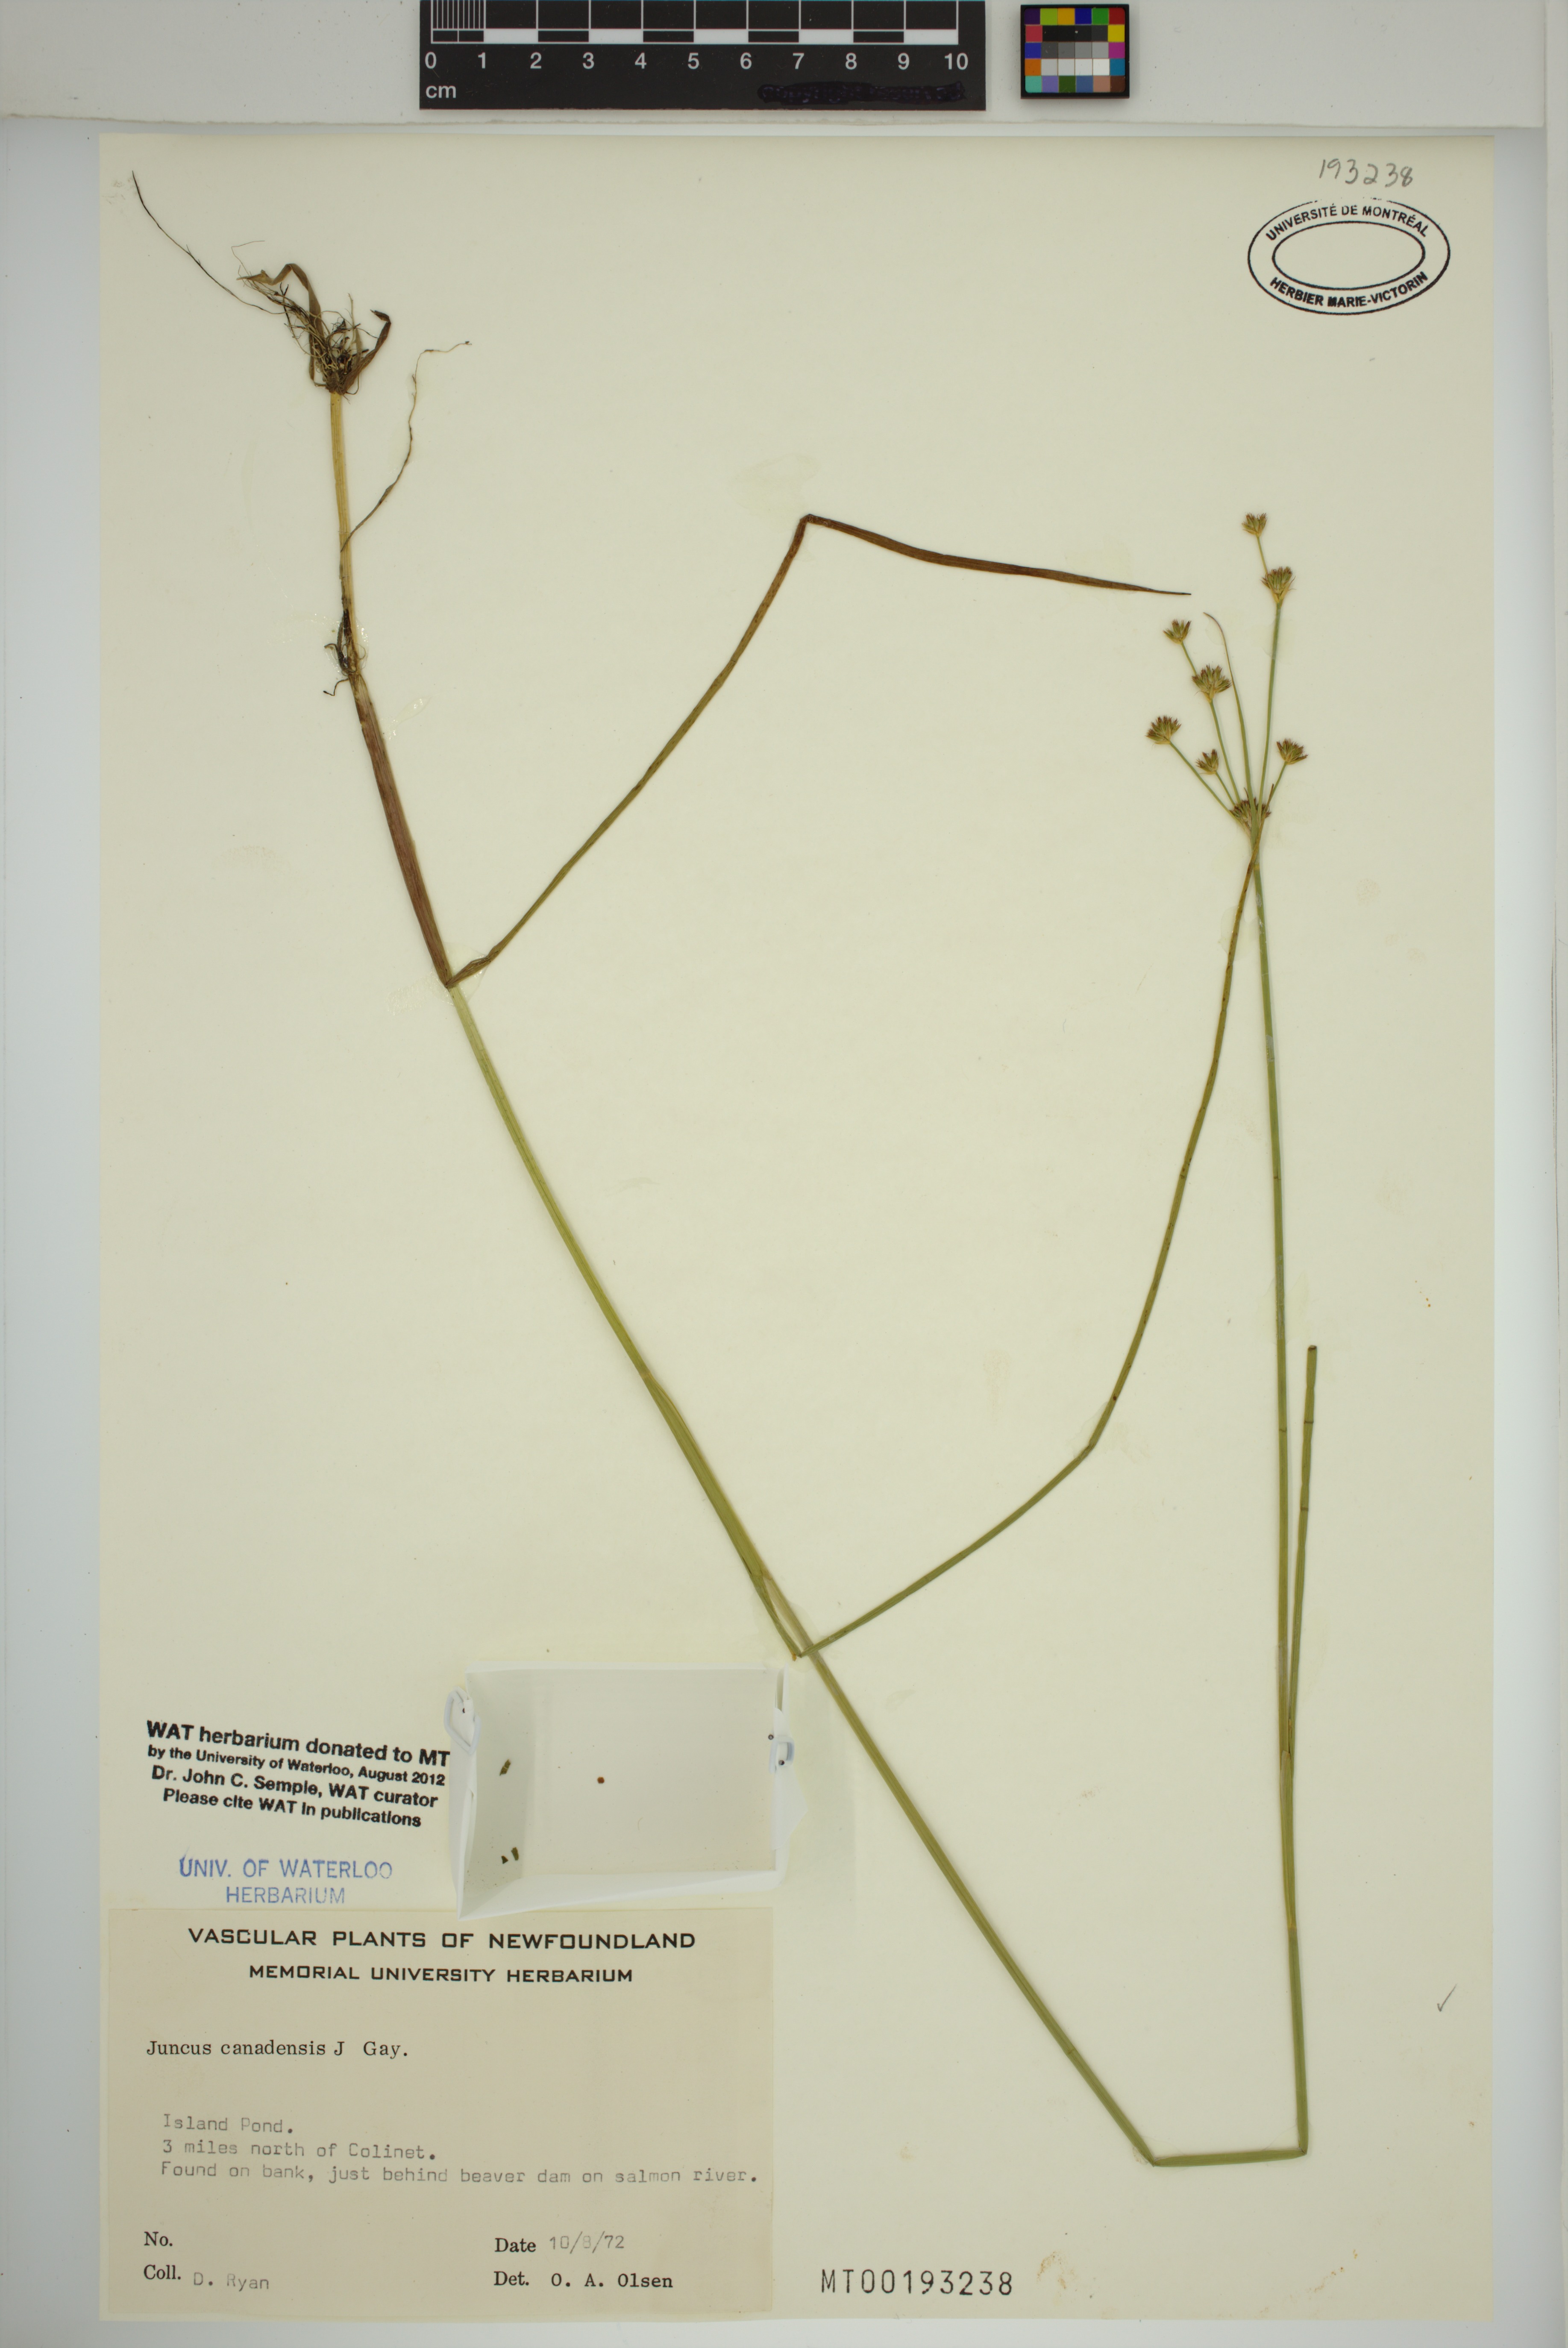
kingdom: Plantae
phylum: Tracheophyta
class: Liliopsida
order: Poales
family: Juncaceae
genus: Juncus
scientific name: Juncus canadensis
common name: Canada rush
